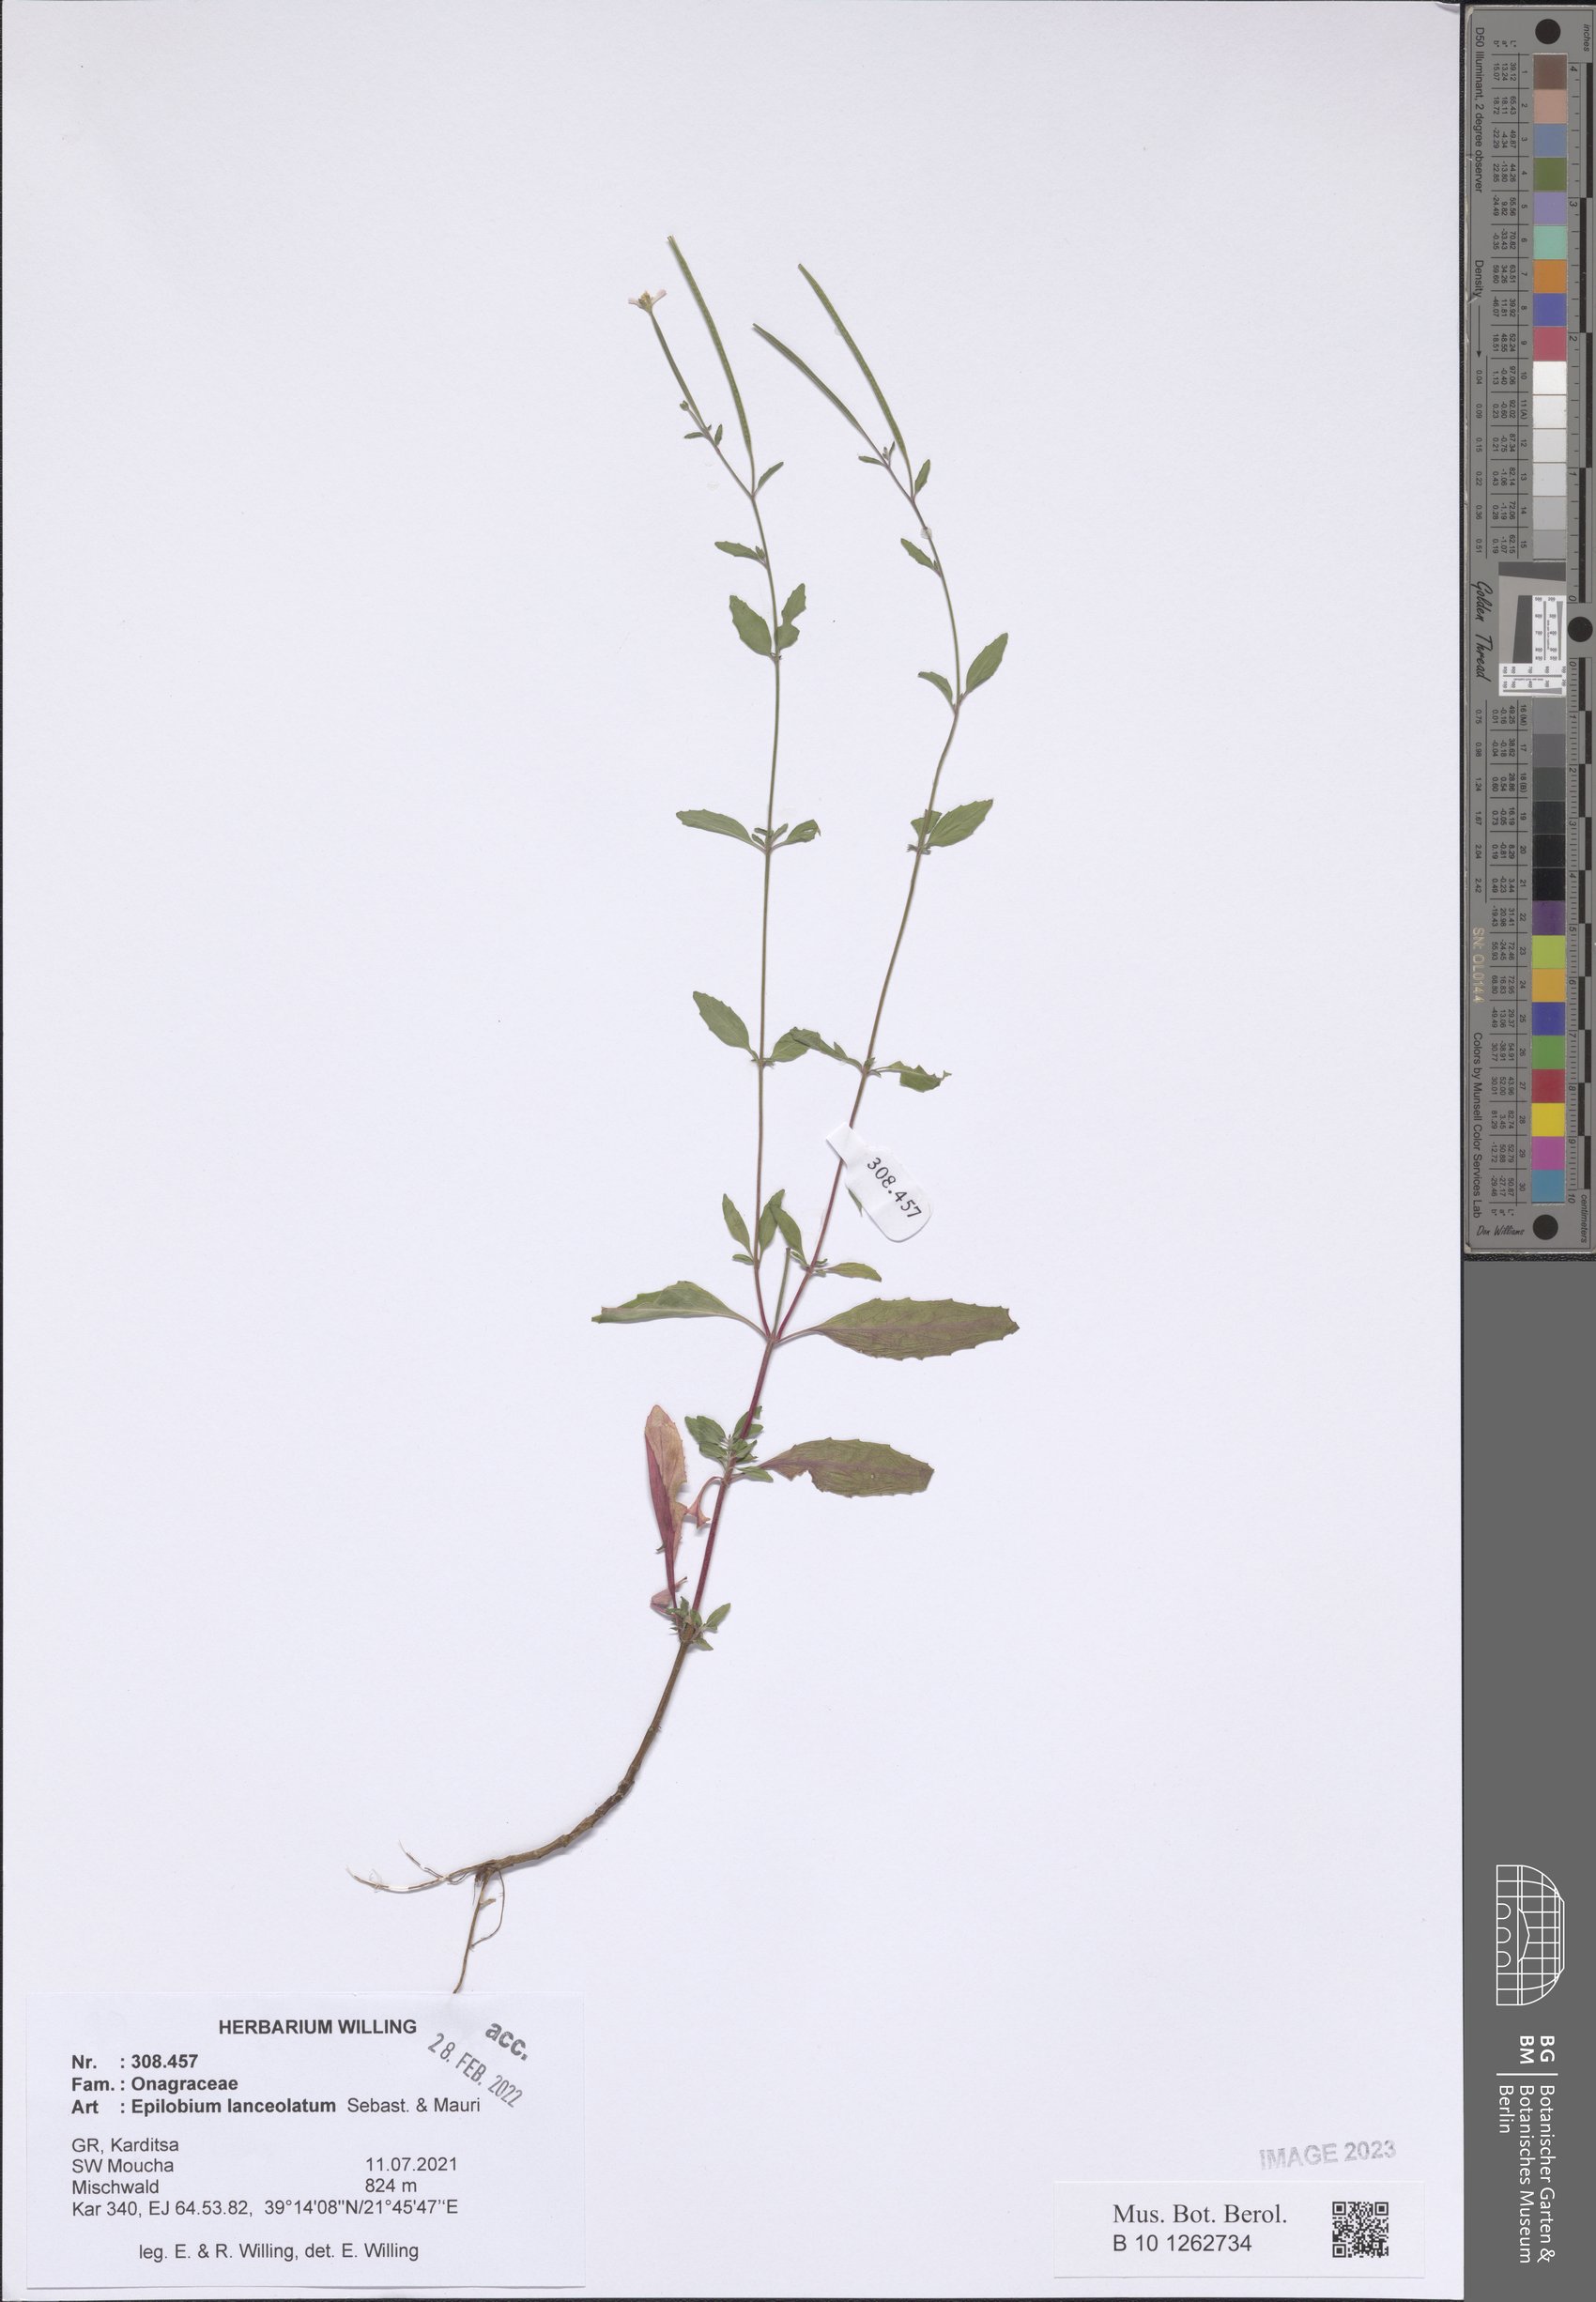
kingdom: Plantae
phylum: Tracheophyta
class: Magnoliopsida
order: Myrtales
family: Onagraceae
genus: Epilobium
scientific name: Epilobium lanceolatum
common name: Spear-leaved willowherb
